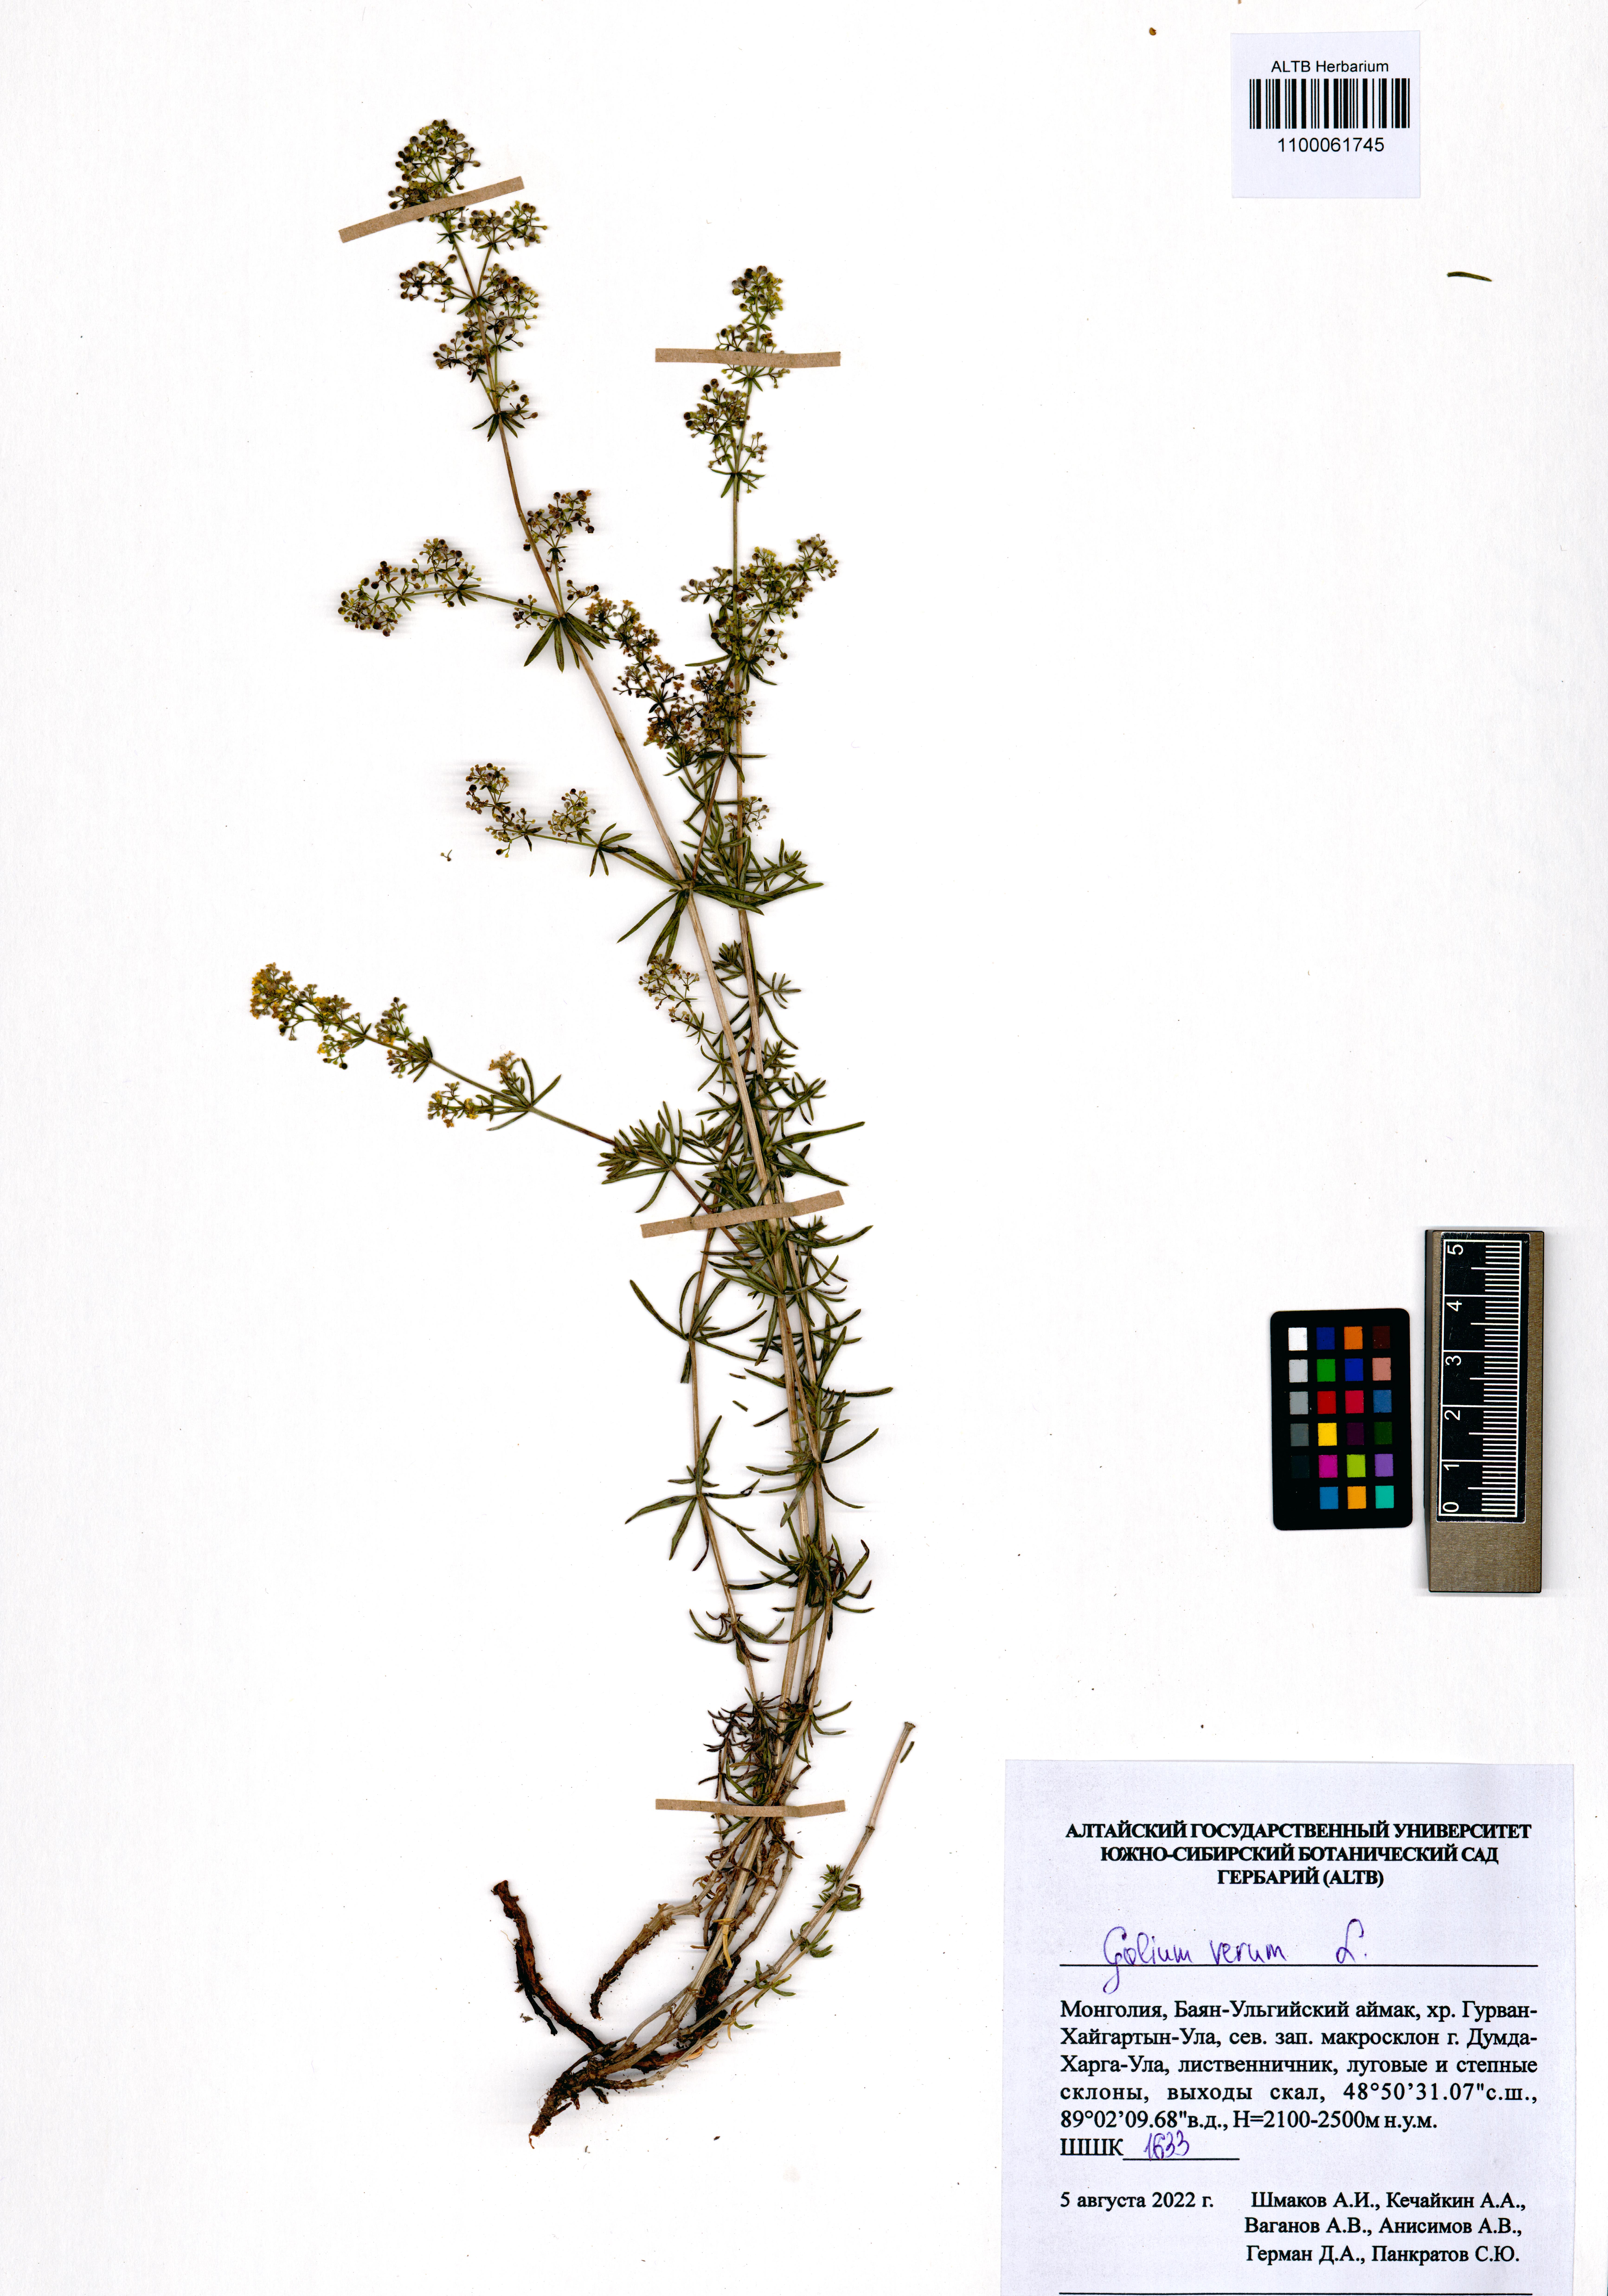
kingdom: Plantae
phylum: Tracheophyta
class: Magnoliopsida
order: Gentianales
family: Rubiaceae
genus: Galium
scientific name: Galium verum
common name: Lady's bedstraw
